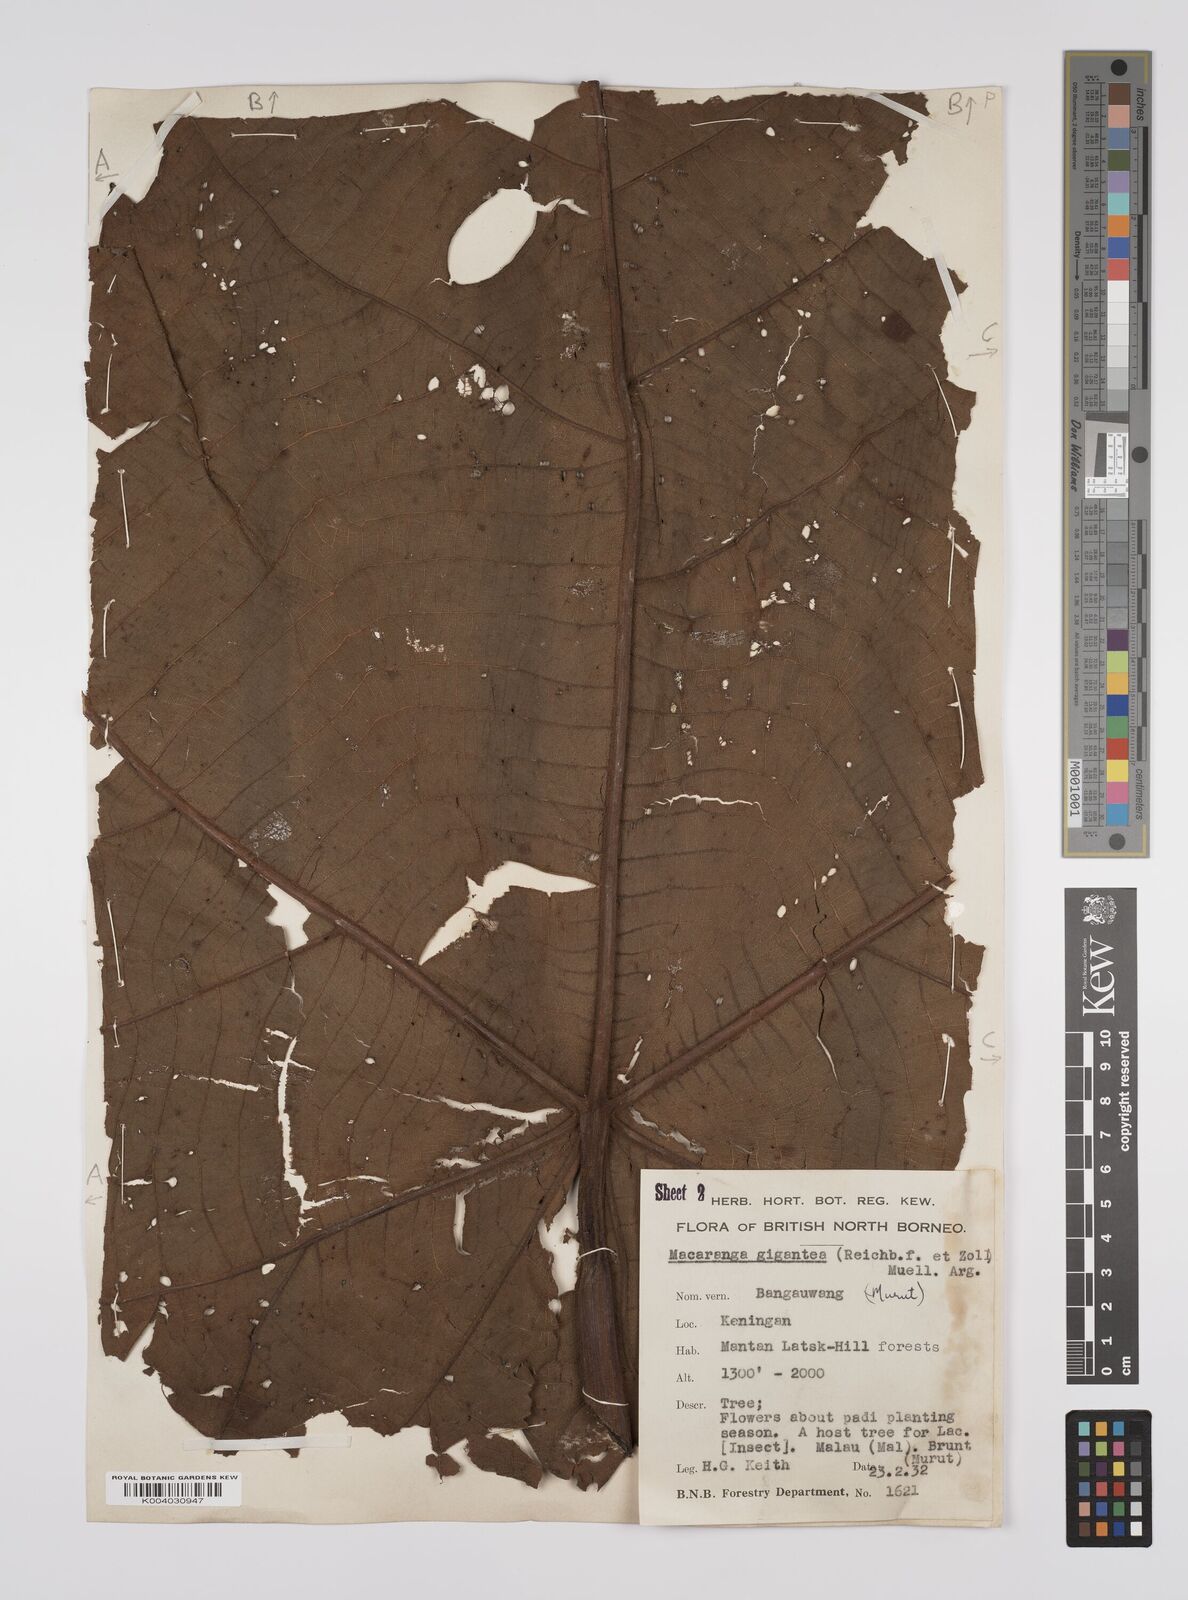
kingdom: Plantae
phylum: Tracheophyta
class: Magnoliopsida
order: Malpighiales
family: Euphorbiaceae
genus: Macaranga
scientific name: Macaranga gigantea
